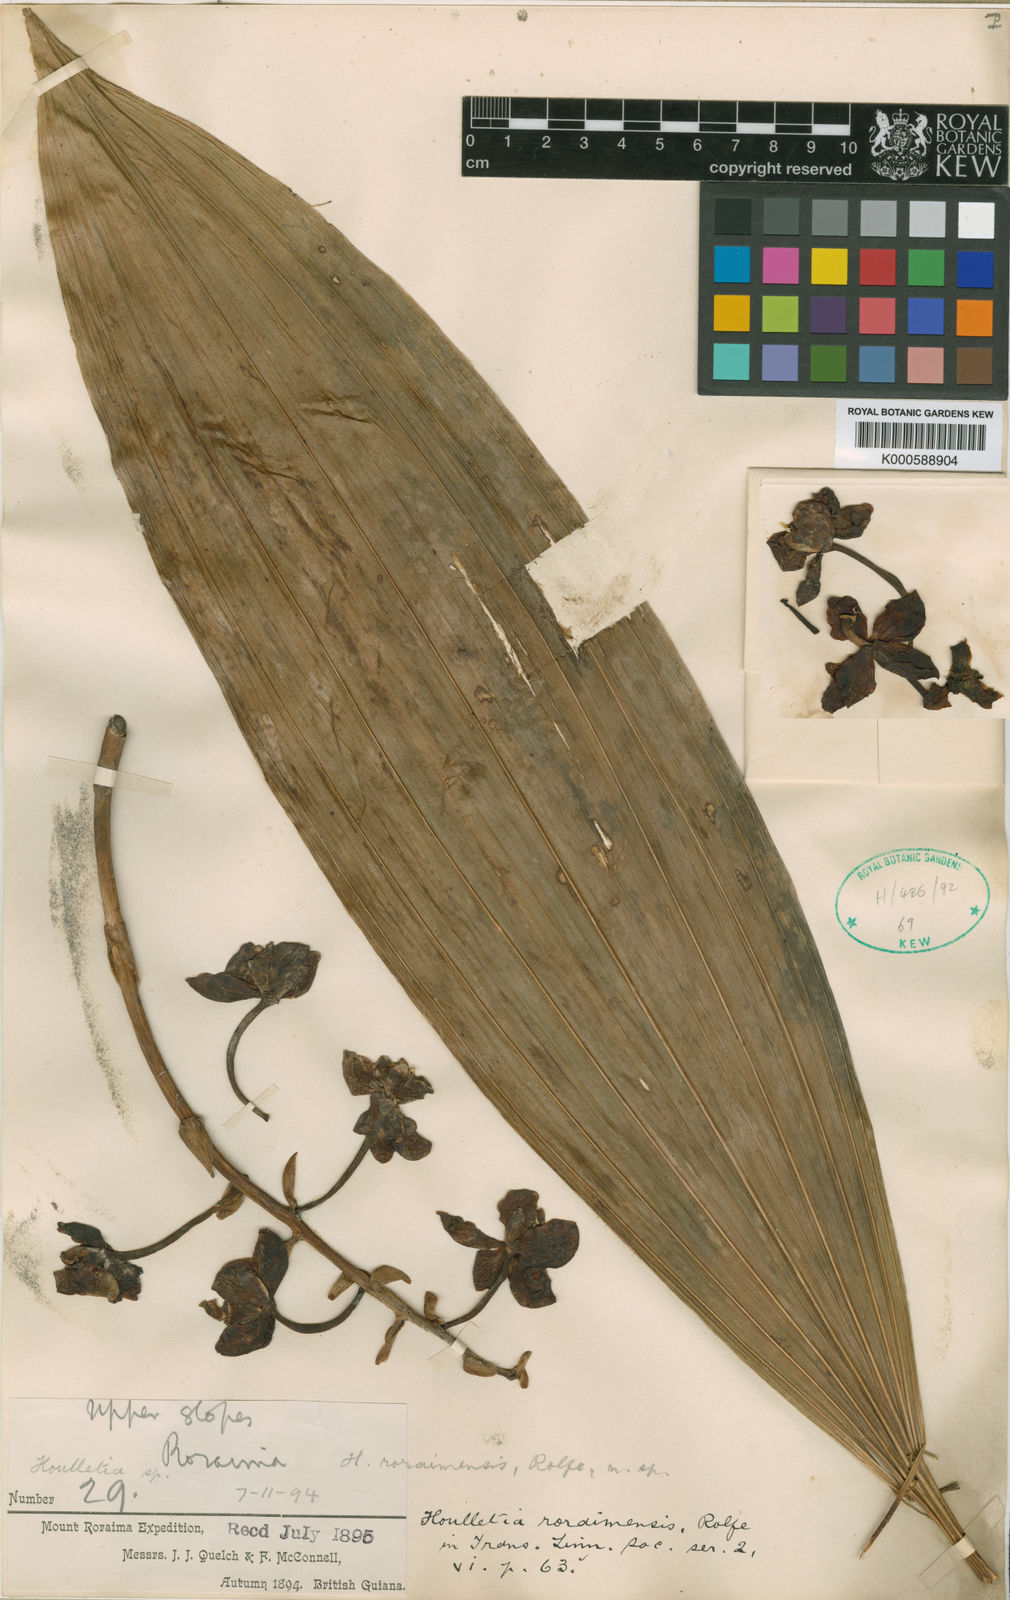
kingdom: Plantae
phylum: Tracheophyta
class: Liliopsida
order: Asparagales
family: Orchidaceae
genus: Houlletia
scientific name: Houlletia roraimensis
